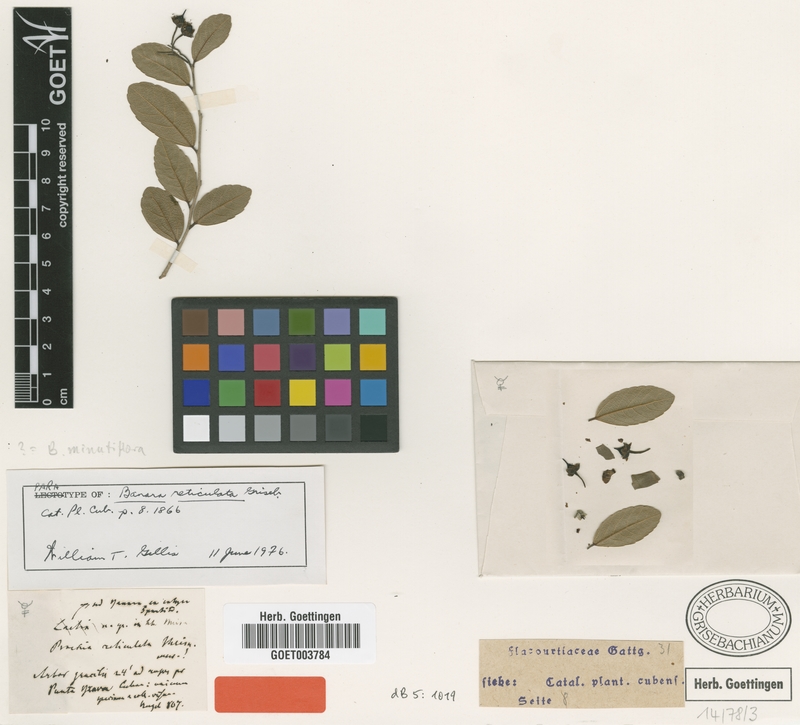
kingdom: Plantae
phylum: Tracheophyta
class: Magnoliopsida
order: Malpighiales
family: Salicaceae
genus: Banara
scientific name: Banara minutiflora
